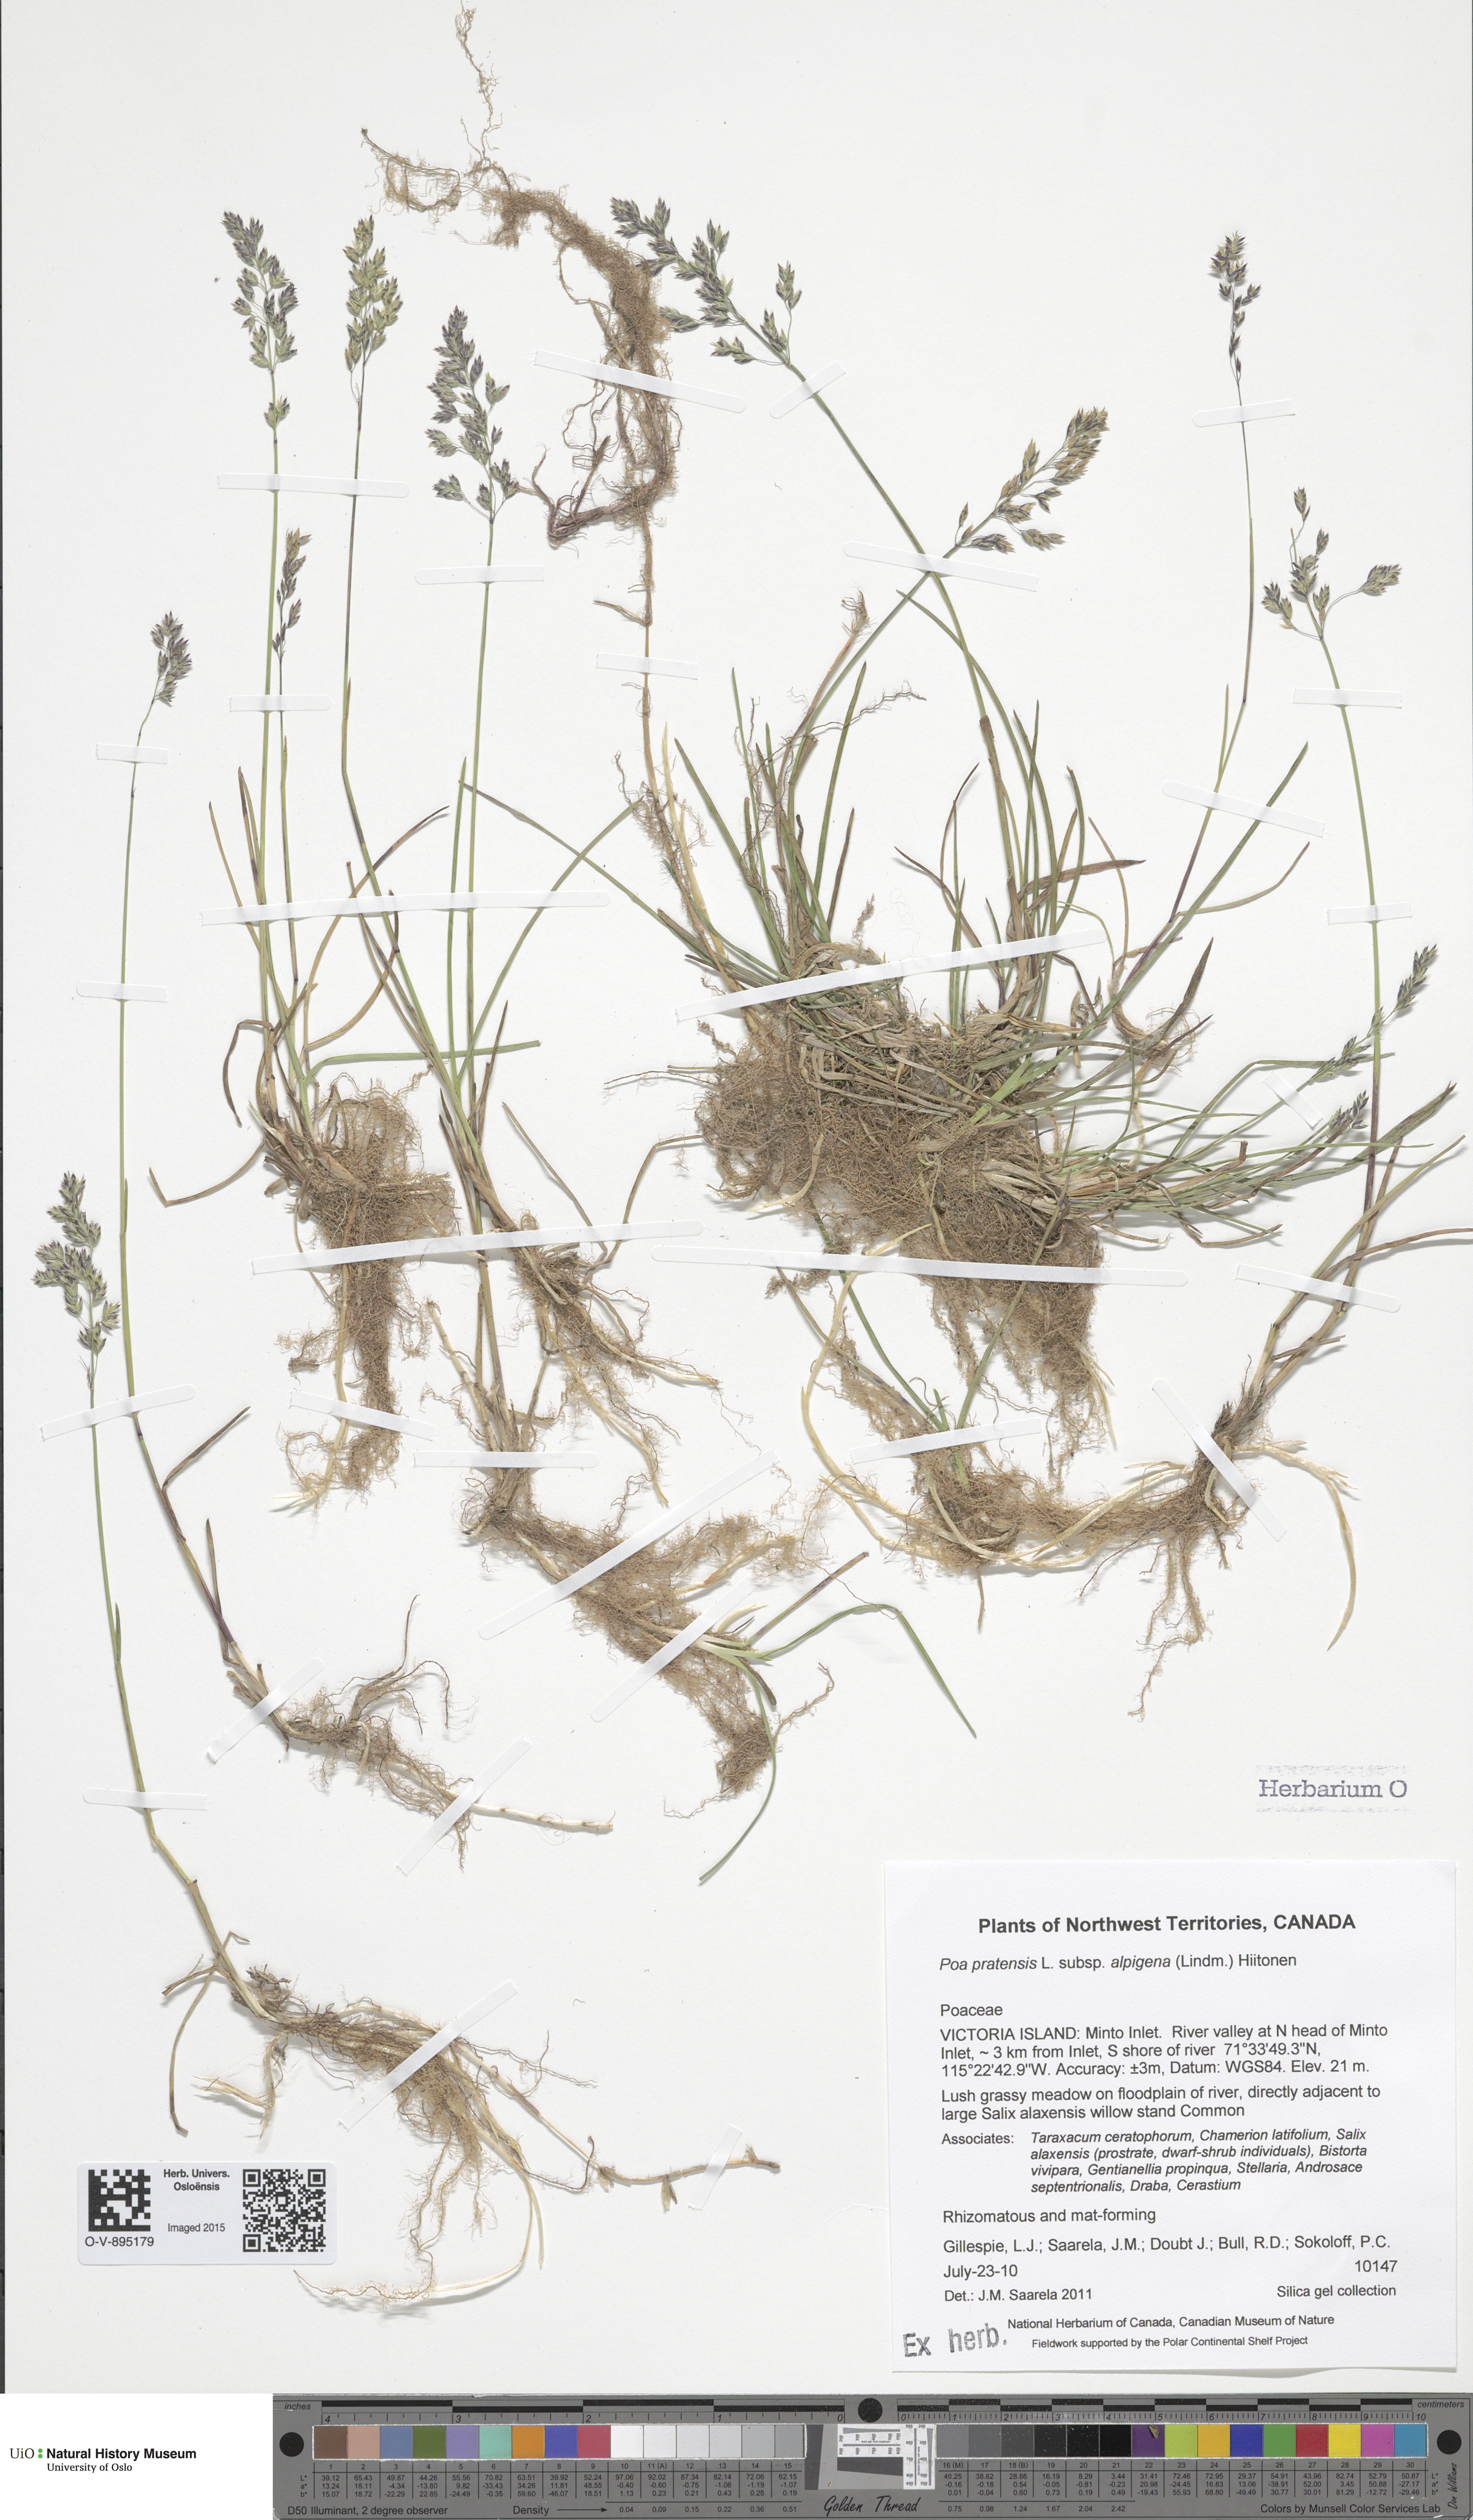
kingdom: Plantae
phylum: Tracheophyta
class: Liliopsida
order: Poales
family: Poaceae
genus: Poa
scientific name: Poa alpigena
